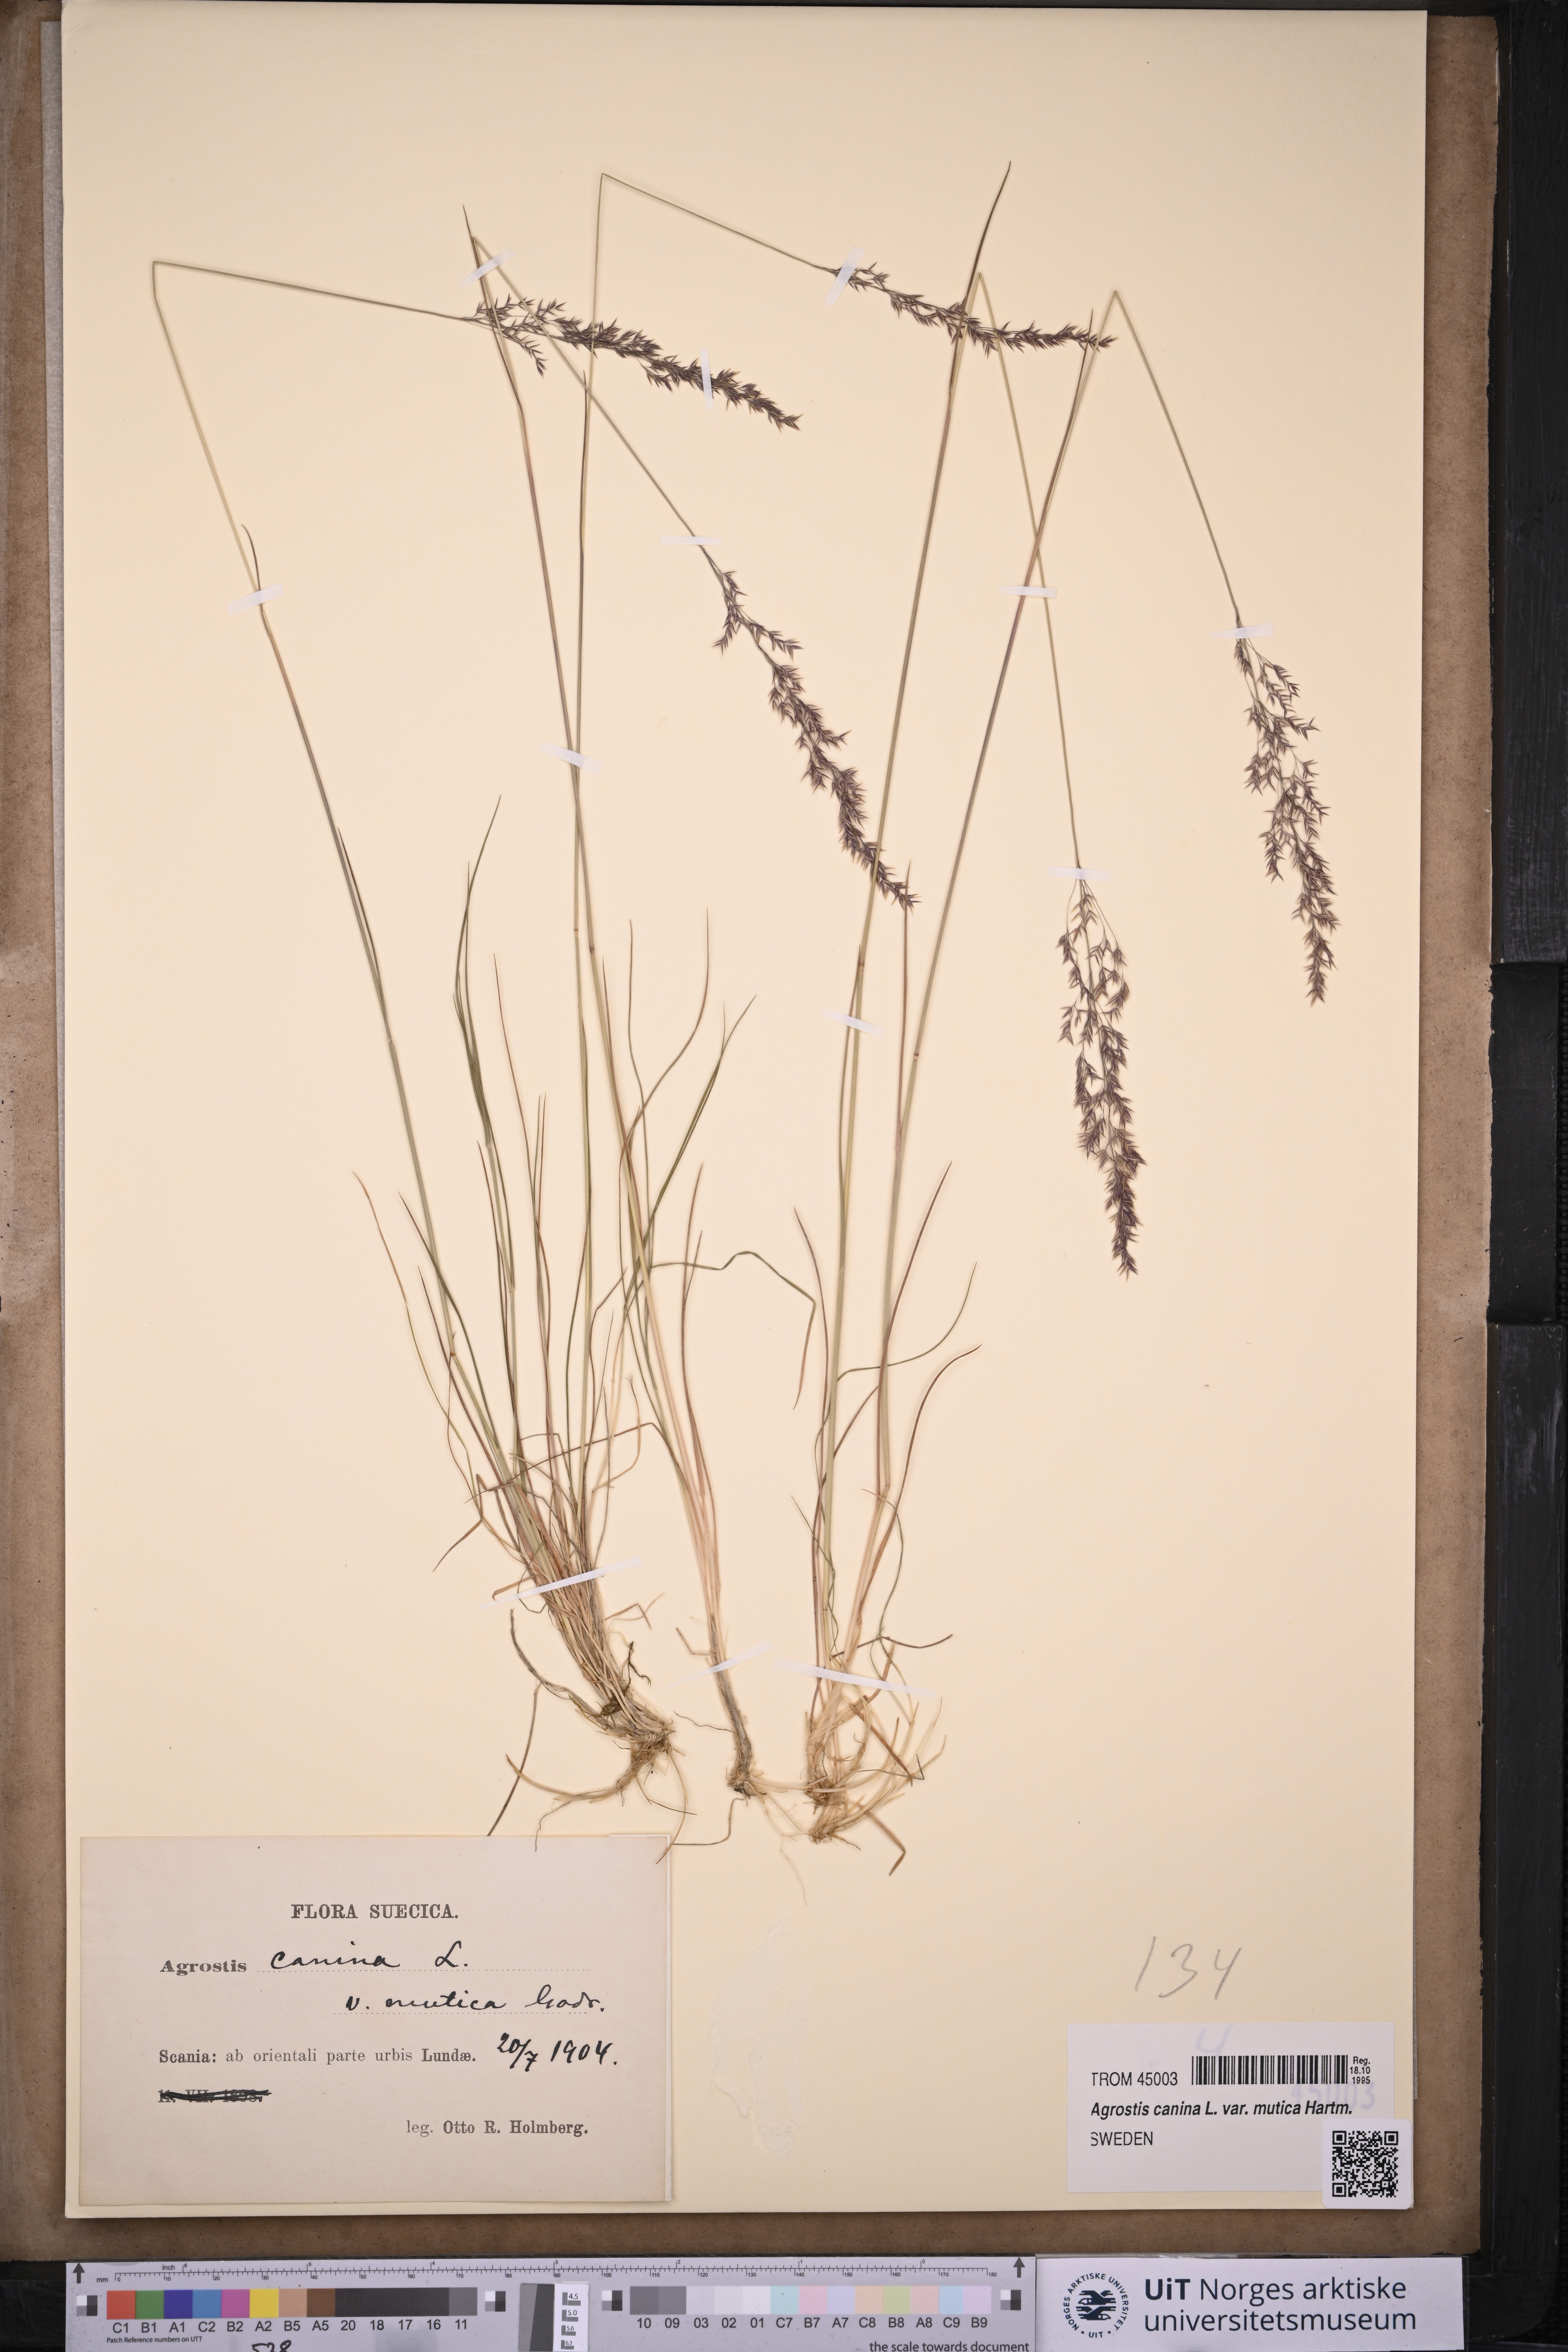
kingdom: Plantae
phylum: Tracheophyta
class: Liliopsida
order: Poales
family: Poaceae
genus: Agrostis
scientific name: Agrostis vinealis
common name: Brown bent
